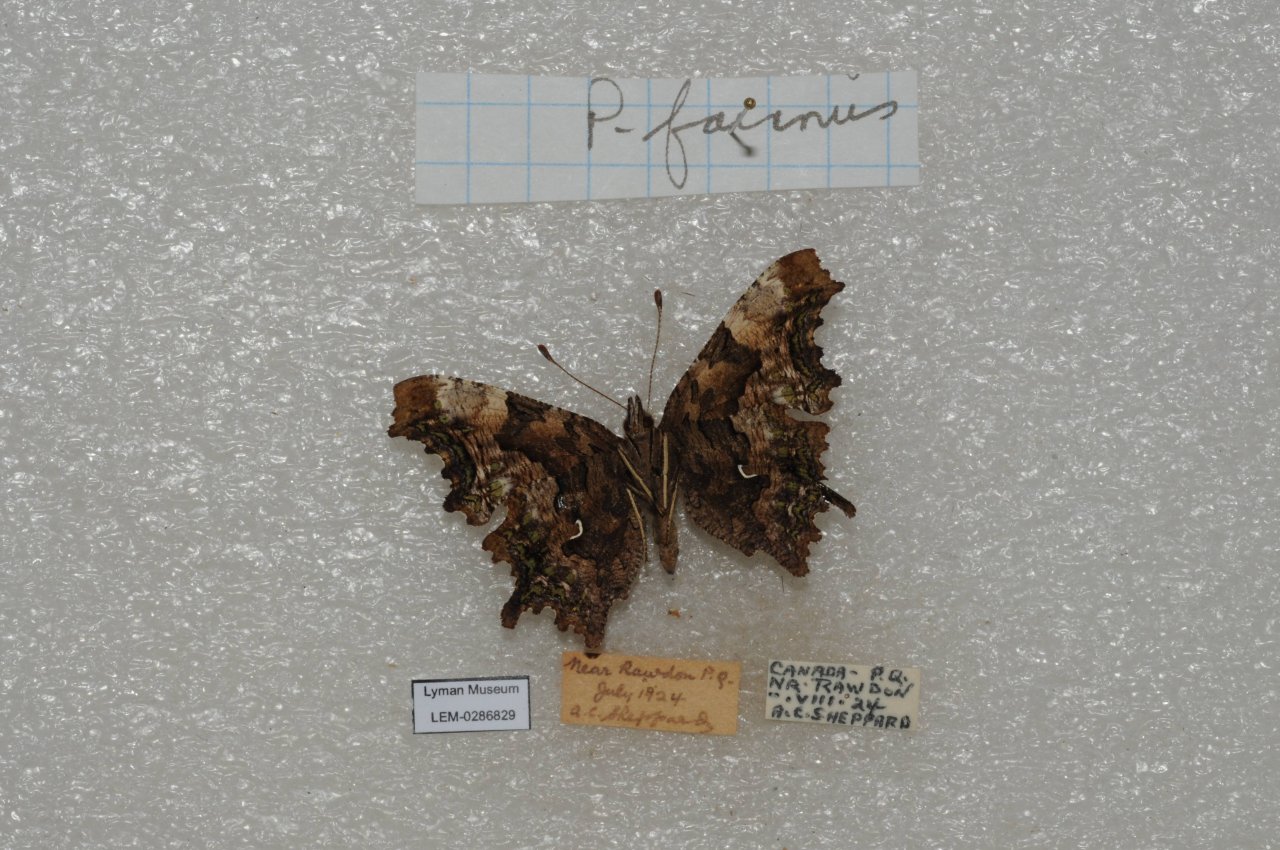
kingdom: Animalia
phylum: Arthropoda
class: Insecta
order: Lepidoptera
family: Nymphalidae
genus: Polygonia
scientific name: Polygonia faunus
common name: Green Comma
